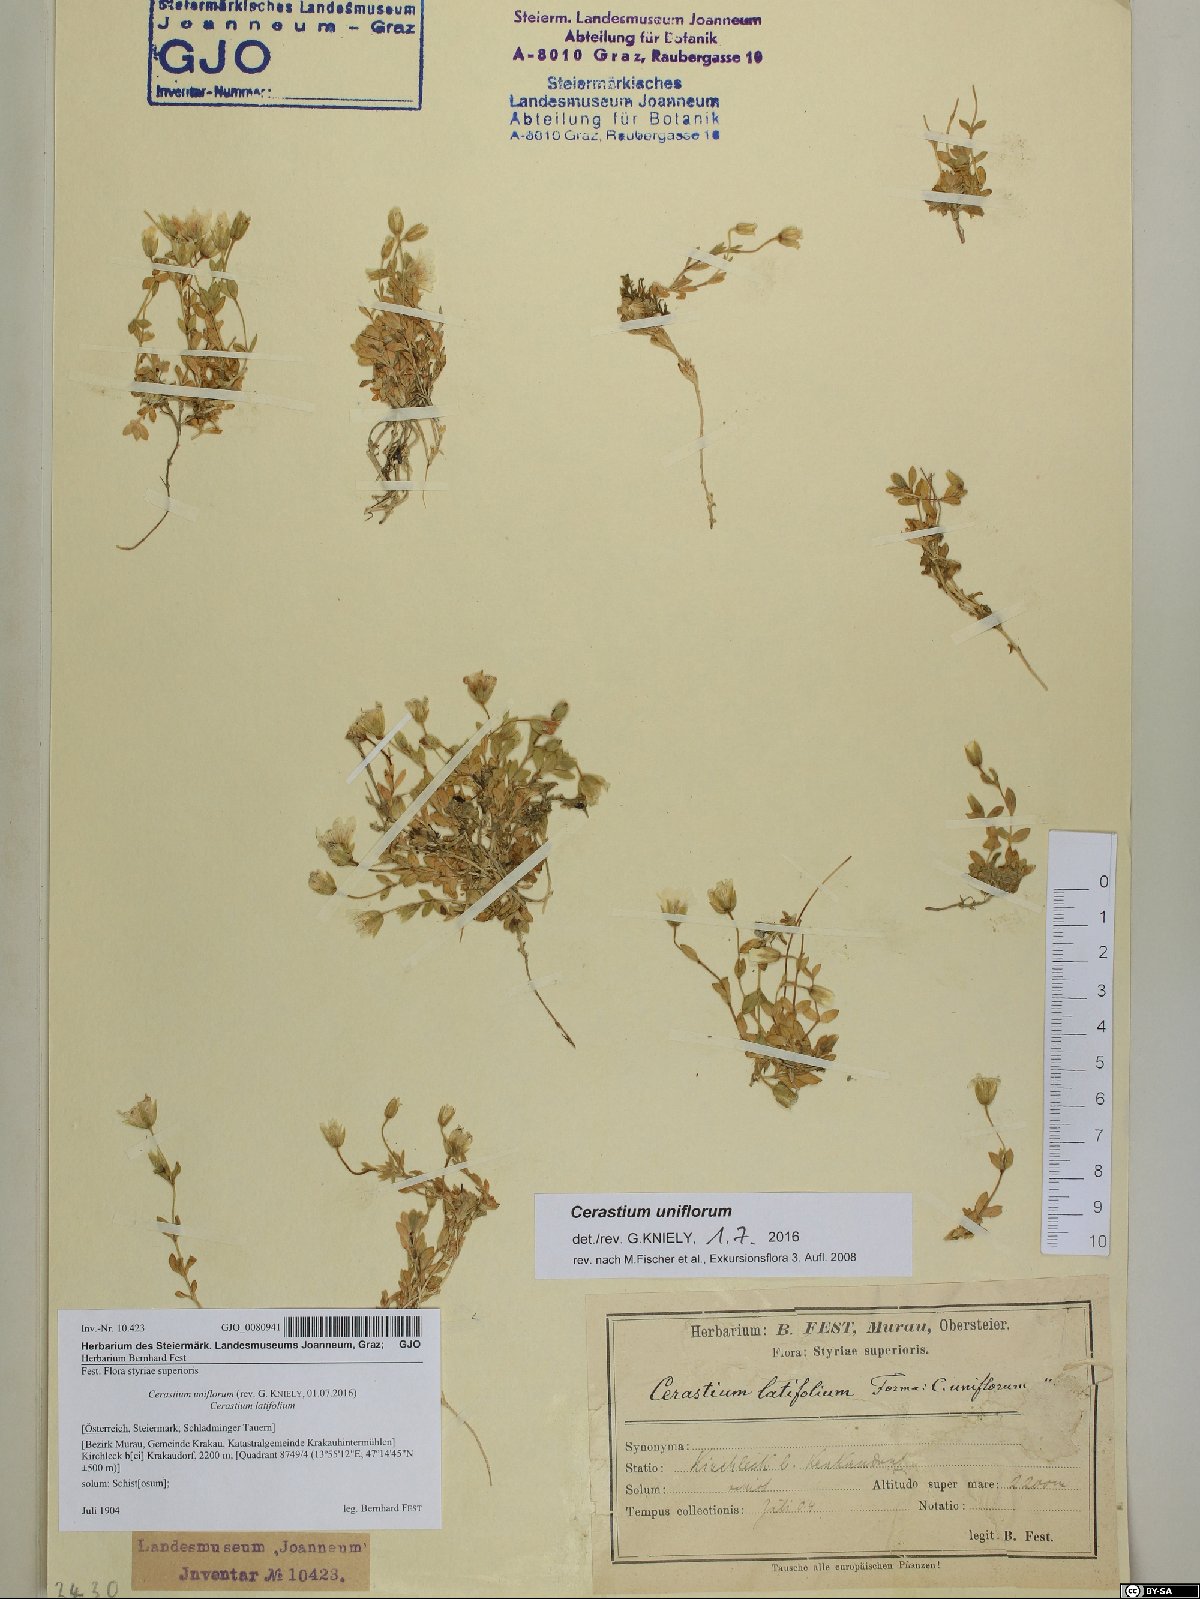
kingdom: Plantae
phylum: Tracheophyta
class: Magnoliopsida
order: Caryophyllales
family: Caryophyllaceae
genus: Cerastium
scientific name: Cerastium uniflorum
